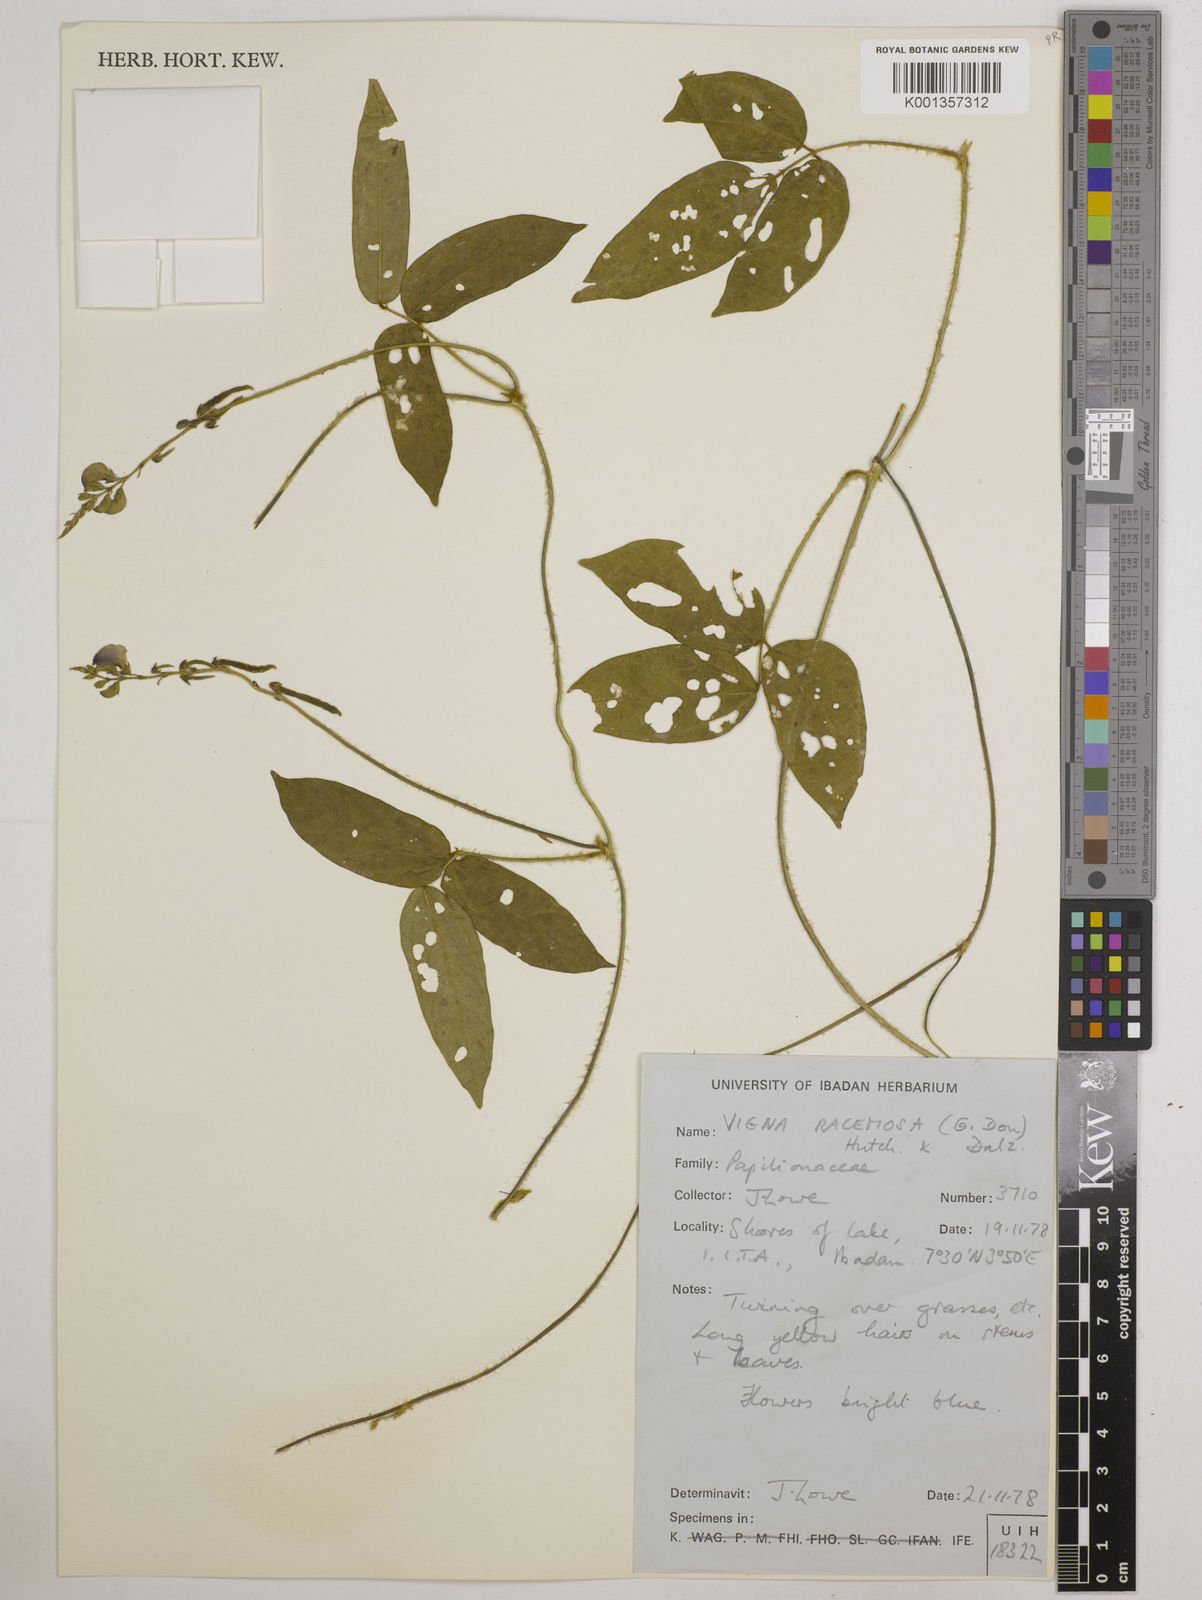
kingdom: Plantae
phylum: Tracheophyta
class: Magnoliopsida
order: Fabales
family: Fabaceae
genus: Vigna
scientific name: Vigna racemosa
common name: Beans not eaten
